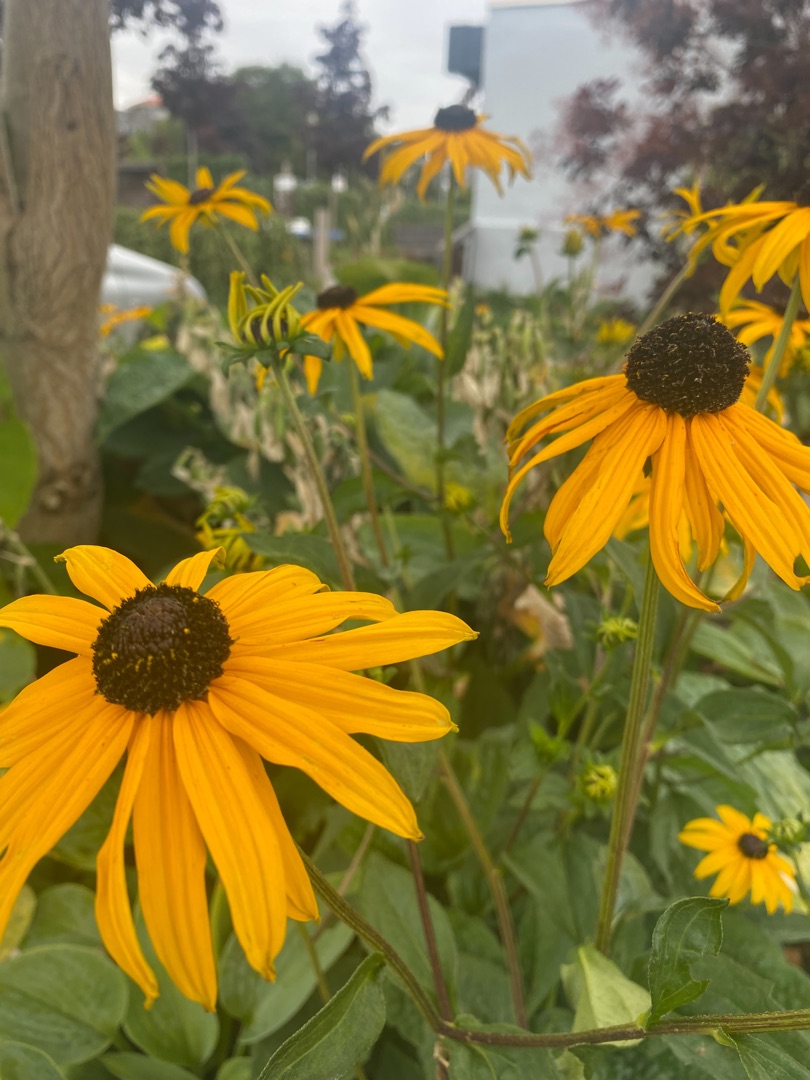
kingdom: Plantae
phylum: Tracheophyta
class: Magnoliopsida
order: Asterales
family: Asteraceae
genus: Rudbeckia
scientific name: Rudbeckia hirta
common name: Håret solhat
